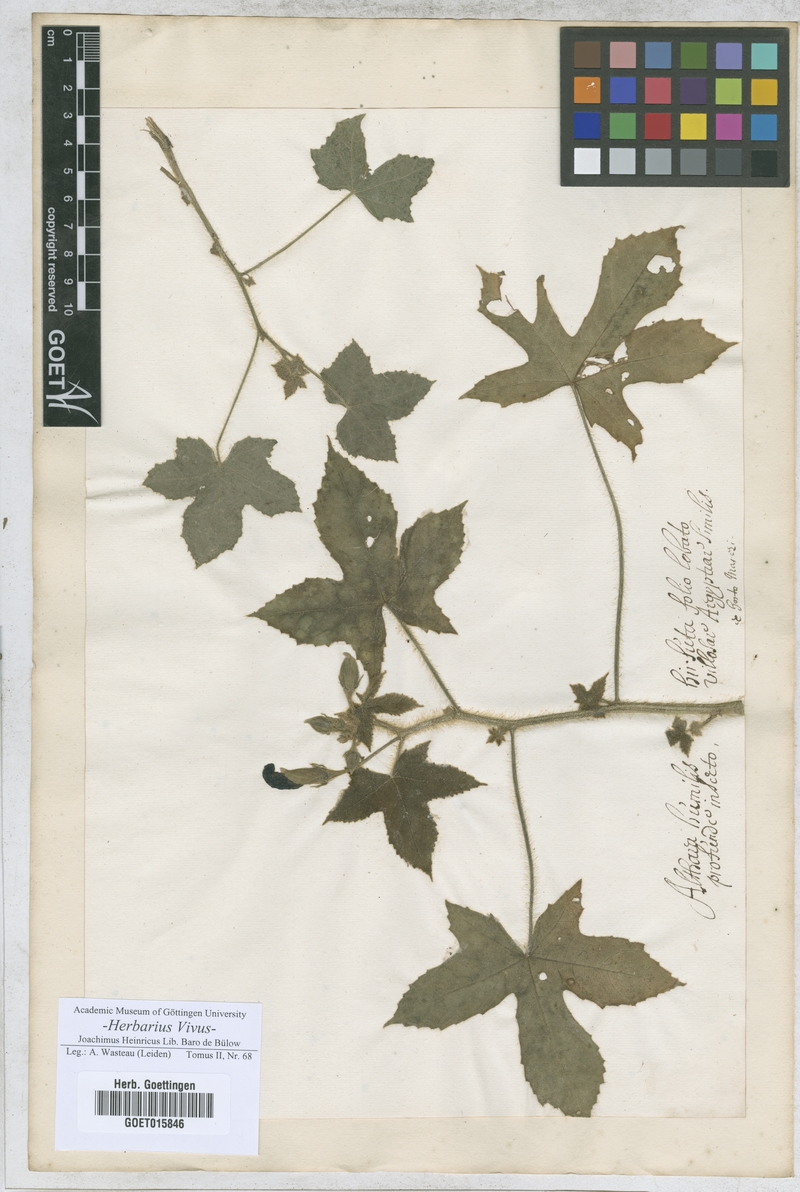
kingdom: Plantae
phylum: Tracheophyta
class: Magnoliopsida
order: Malvales
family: Malvaceae
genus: Althaea
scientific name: Althaea hirsuta
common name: Rough marsh-mallow
